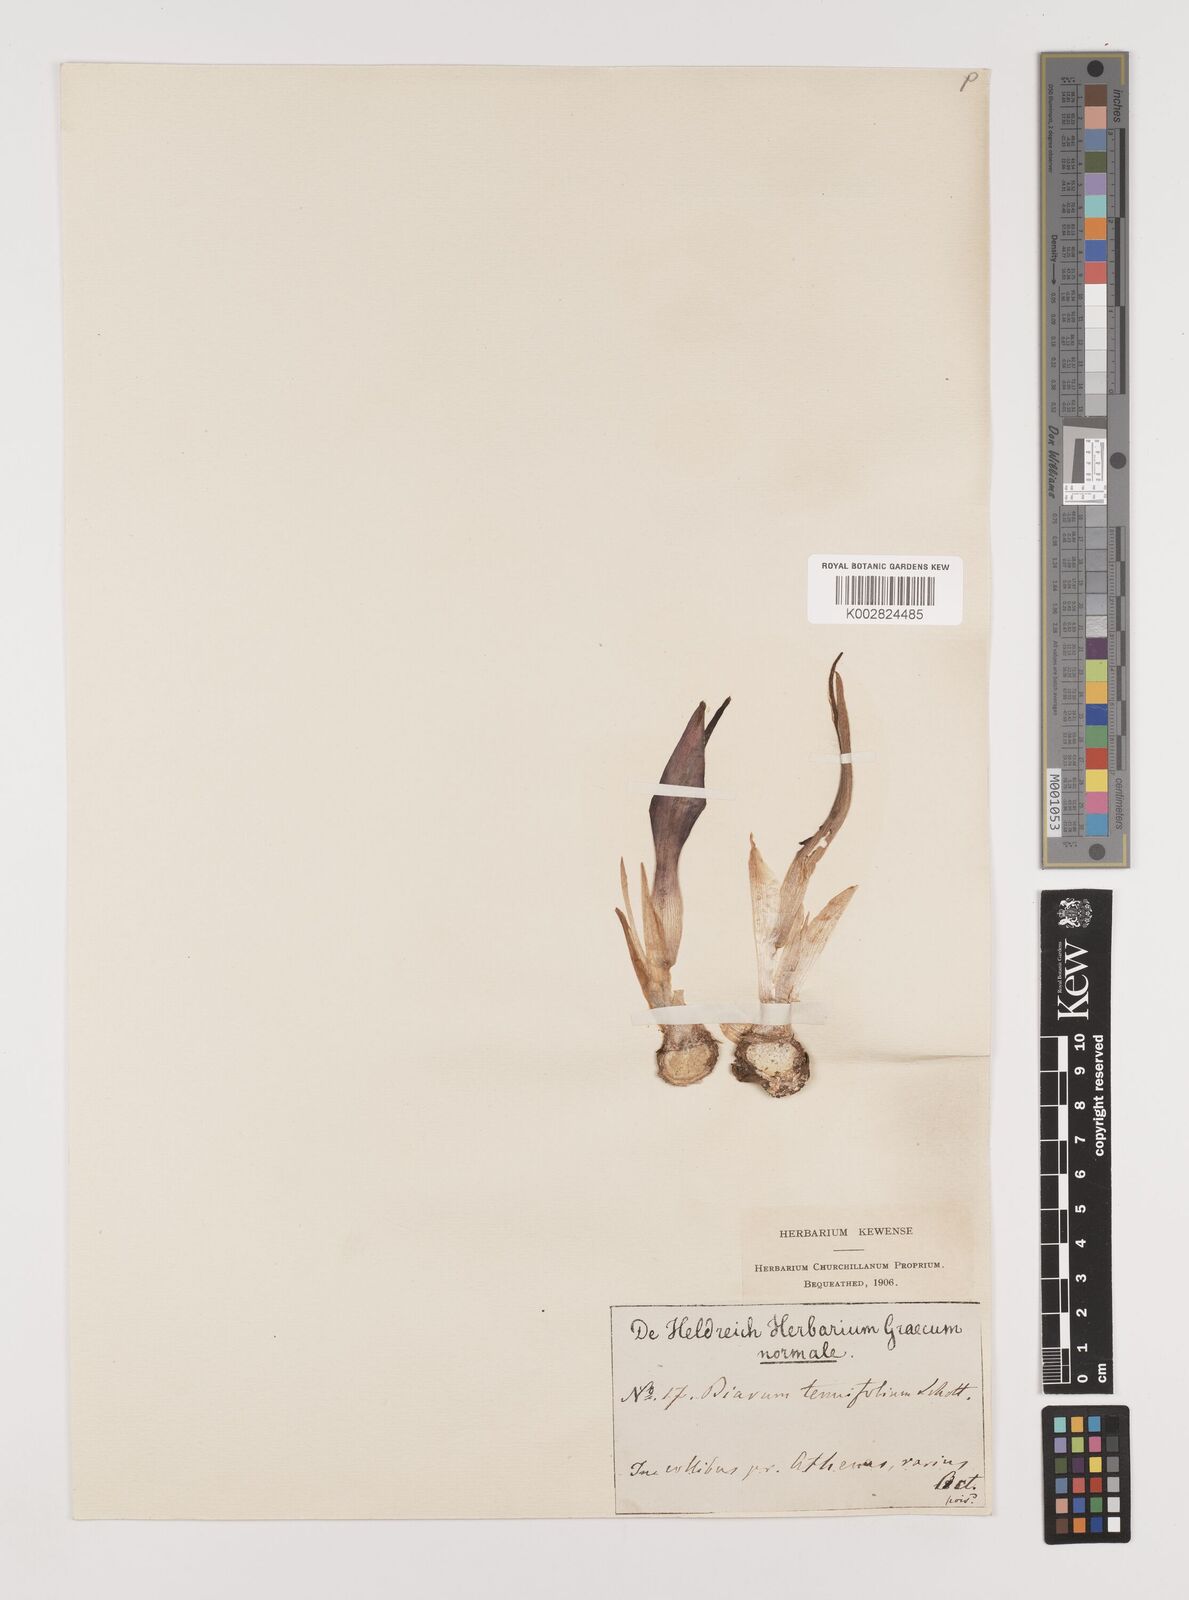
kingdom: Plantae
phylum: Tracheophyta
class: Liliopsida
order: Alismatales
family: Araceae
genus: Biarum
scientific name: Biarum tenuifolium
